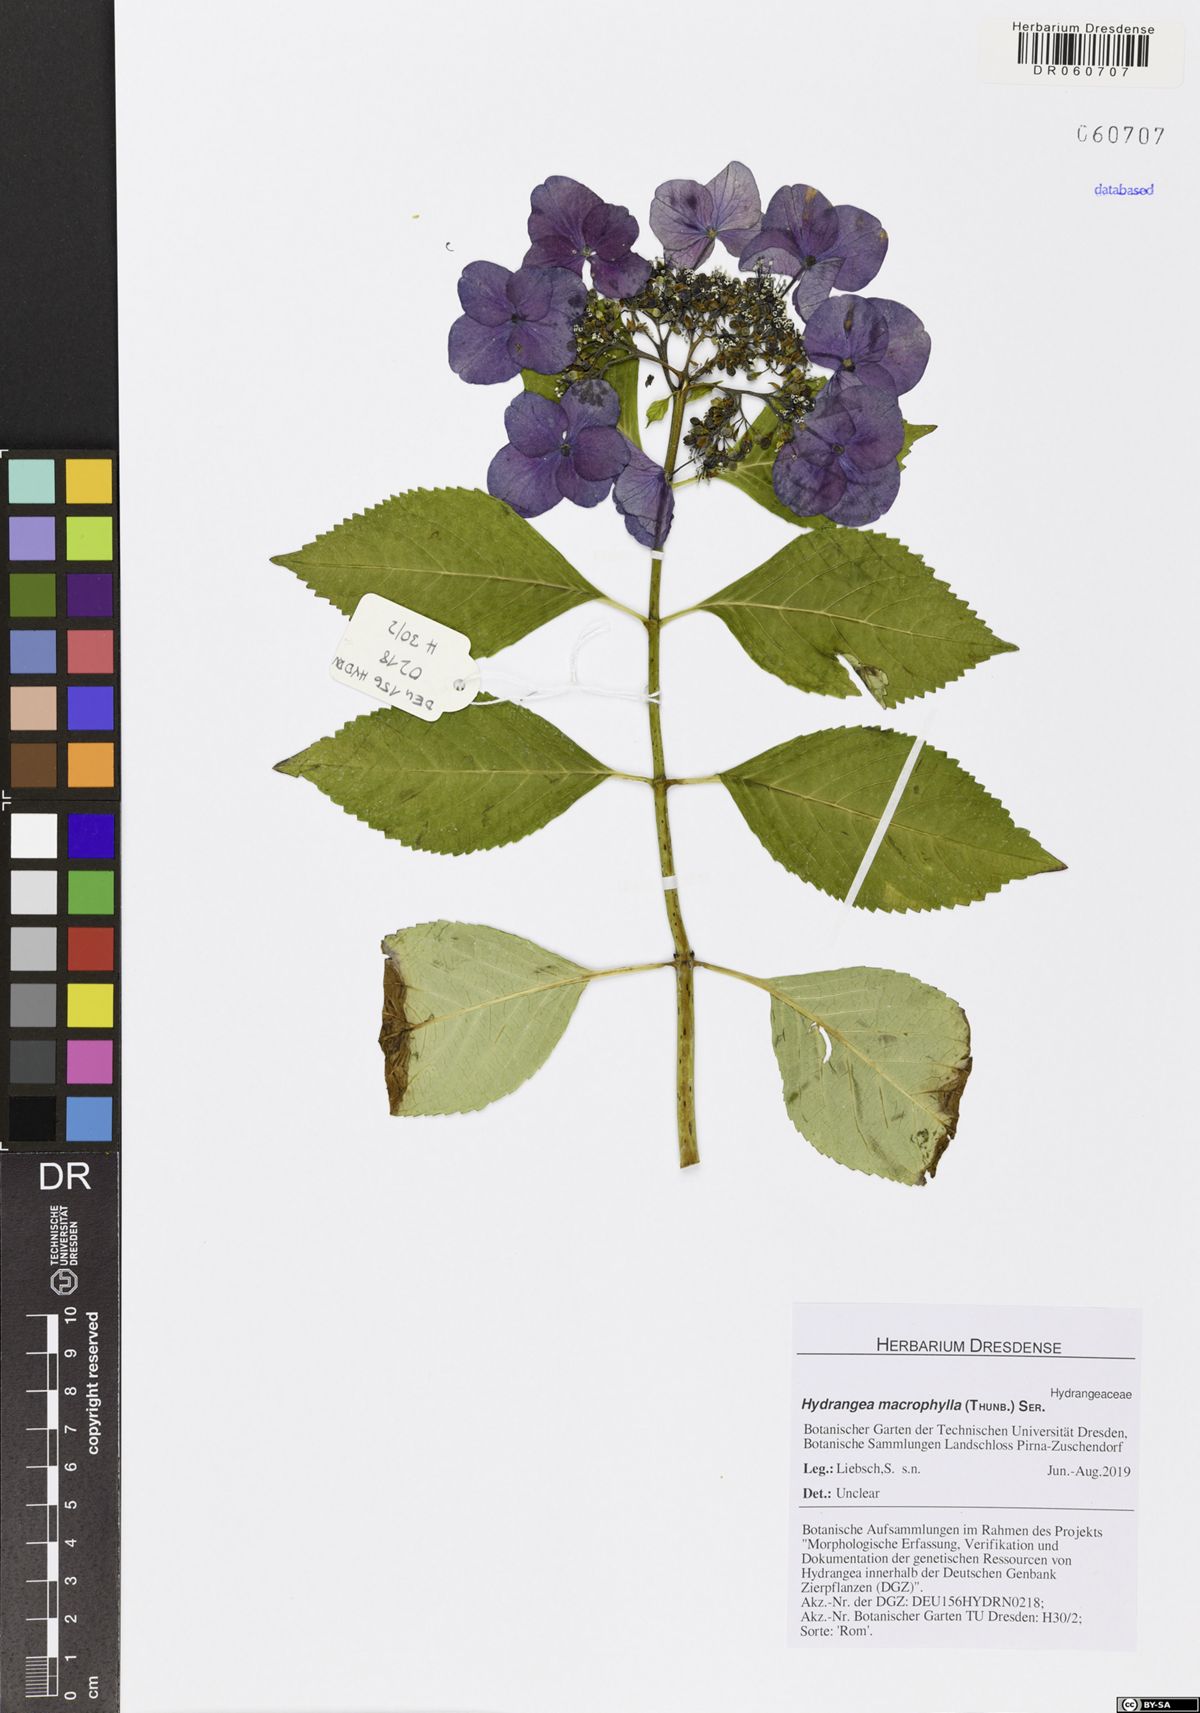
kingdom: Plantae
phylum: Tracheophyta
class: Magnoliopsida
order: Cornales
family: Hydrangeaceae
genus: Hydrangea
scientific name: Hydrangea macrophylla
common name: Hydrangea
